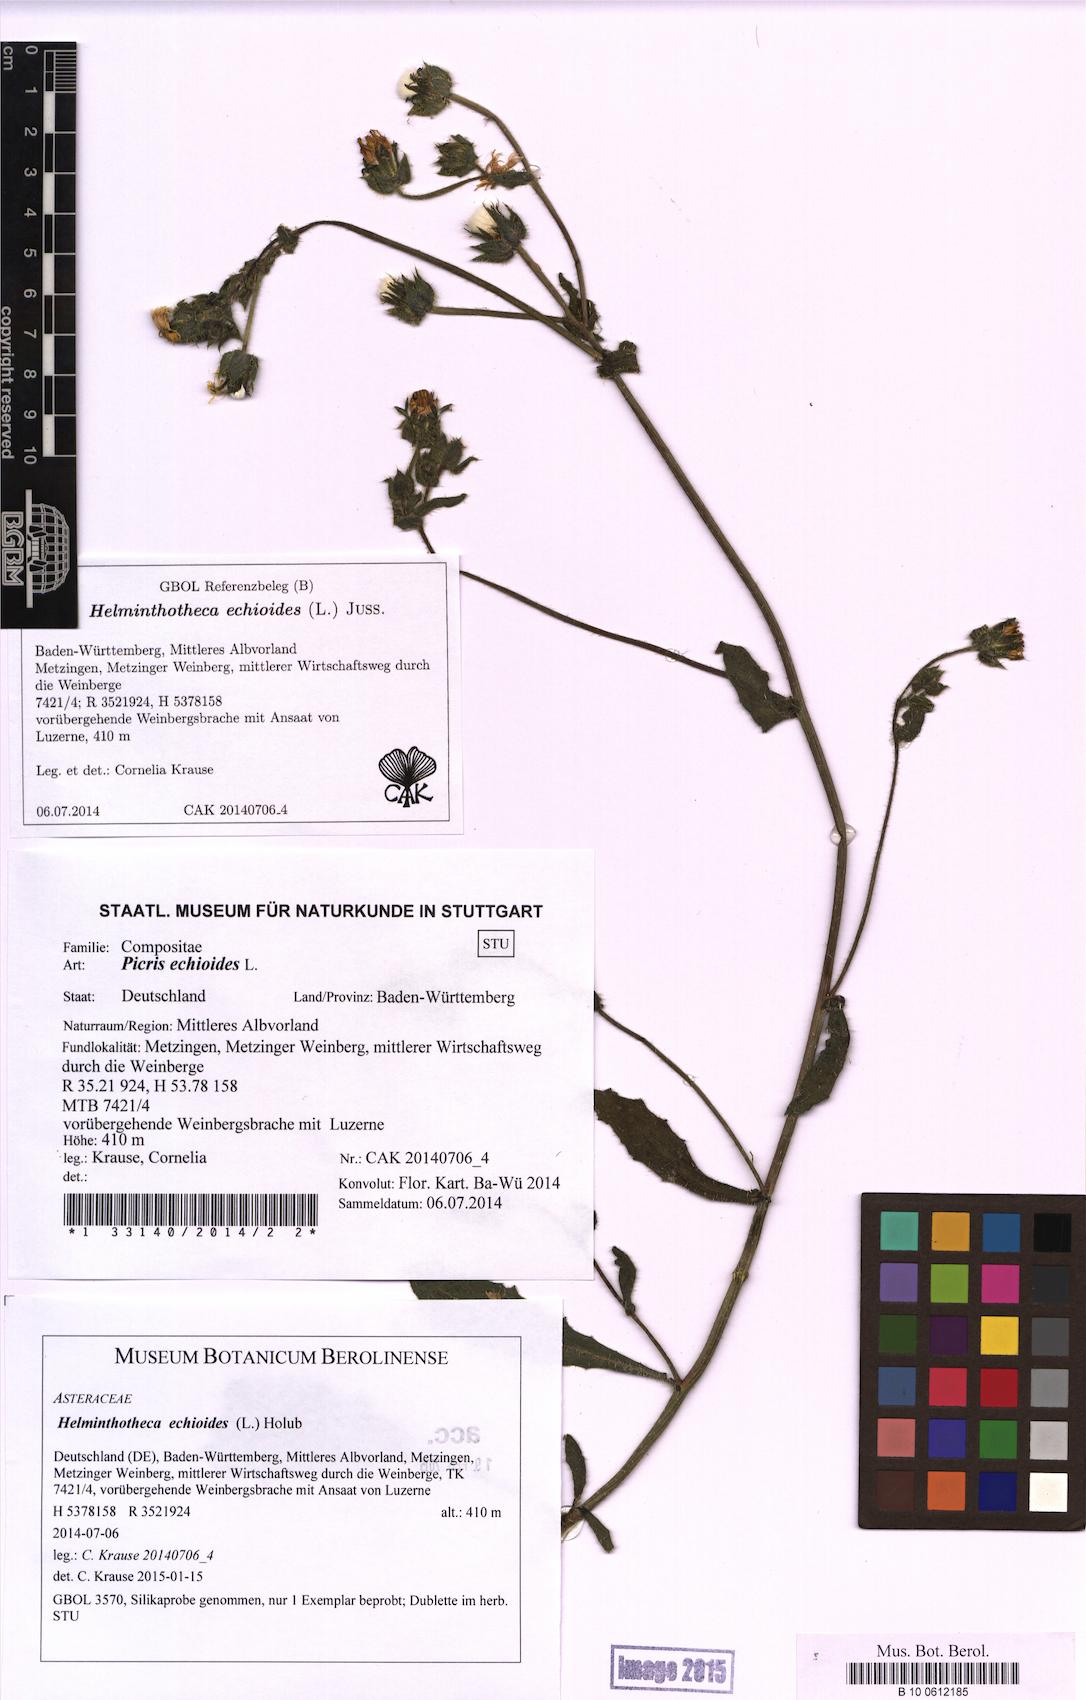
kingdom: Plantae
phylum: Tracheophyta
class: Magnoliopsida
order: Asterales
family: Asteraceae
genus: Helminthotheca
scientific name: Helminthotheca echioides
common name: Ox-tongue
